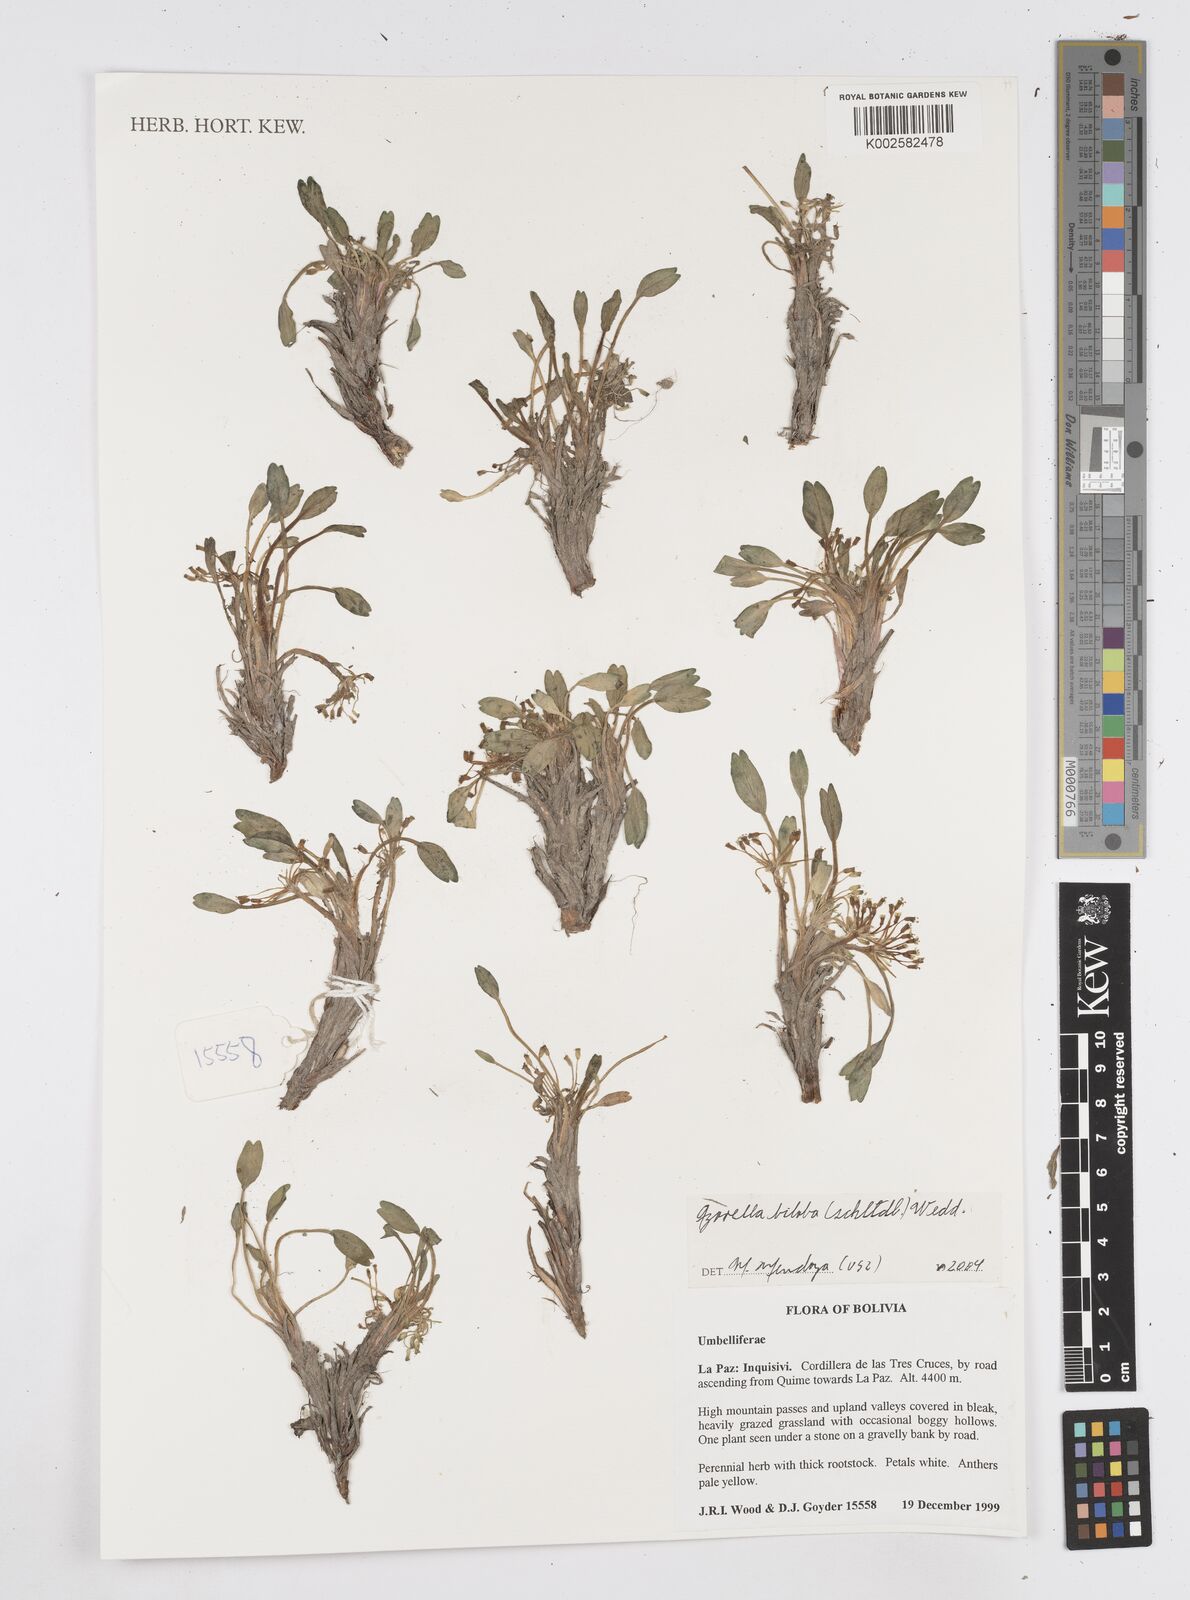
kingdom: Plantae
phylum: Tracheophyta
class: Magnoliopsida
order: Apiales
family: Apiaceae
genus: Azorella
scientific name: Azorella biloba
